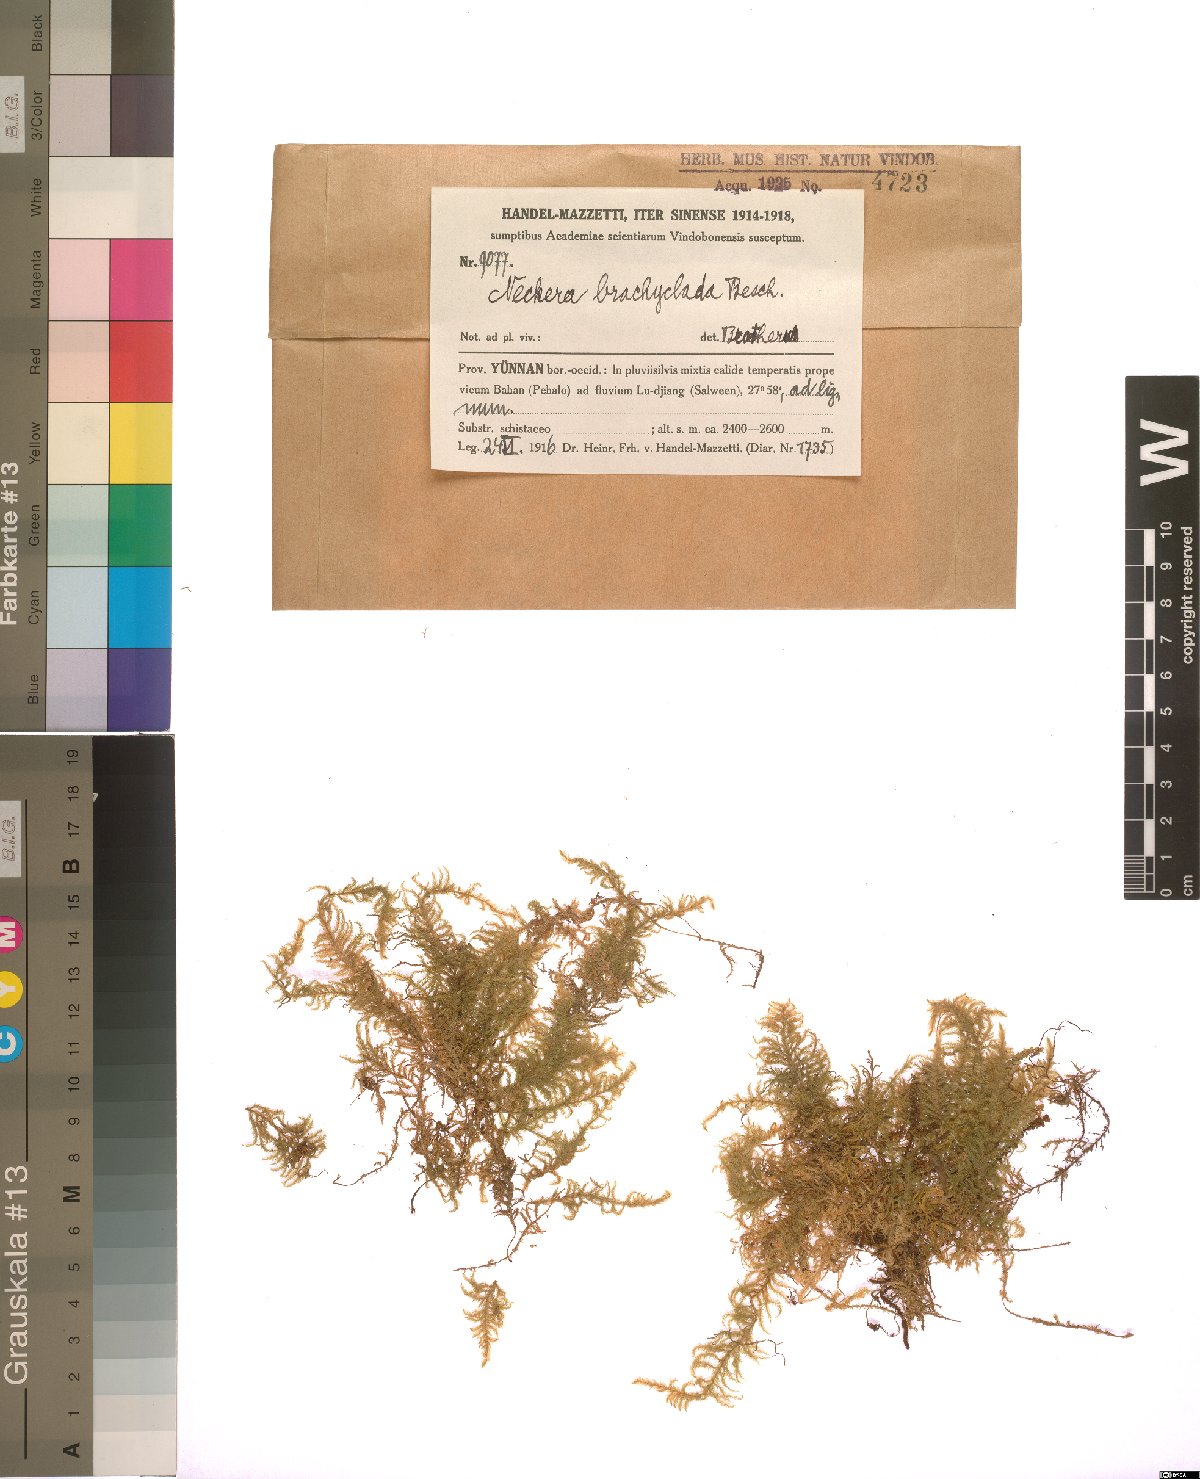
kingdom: Plantae
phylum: Bryophyta
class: Bryopsida
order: Hypnales
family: Neckeraceae
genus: Taiwanobryum
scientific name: Taiwanobryum yunnanense
